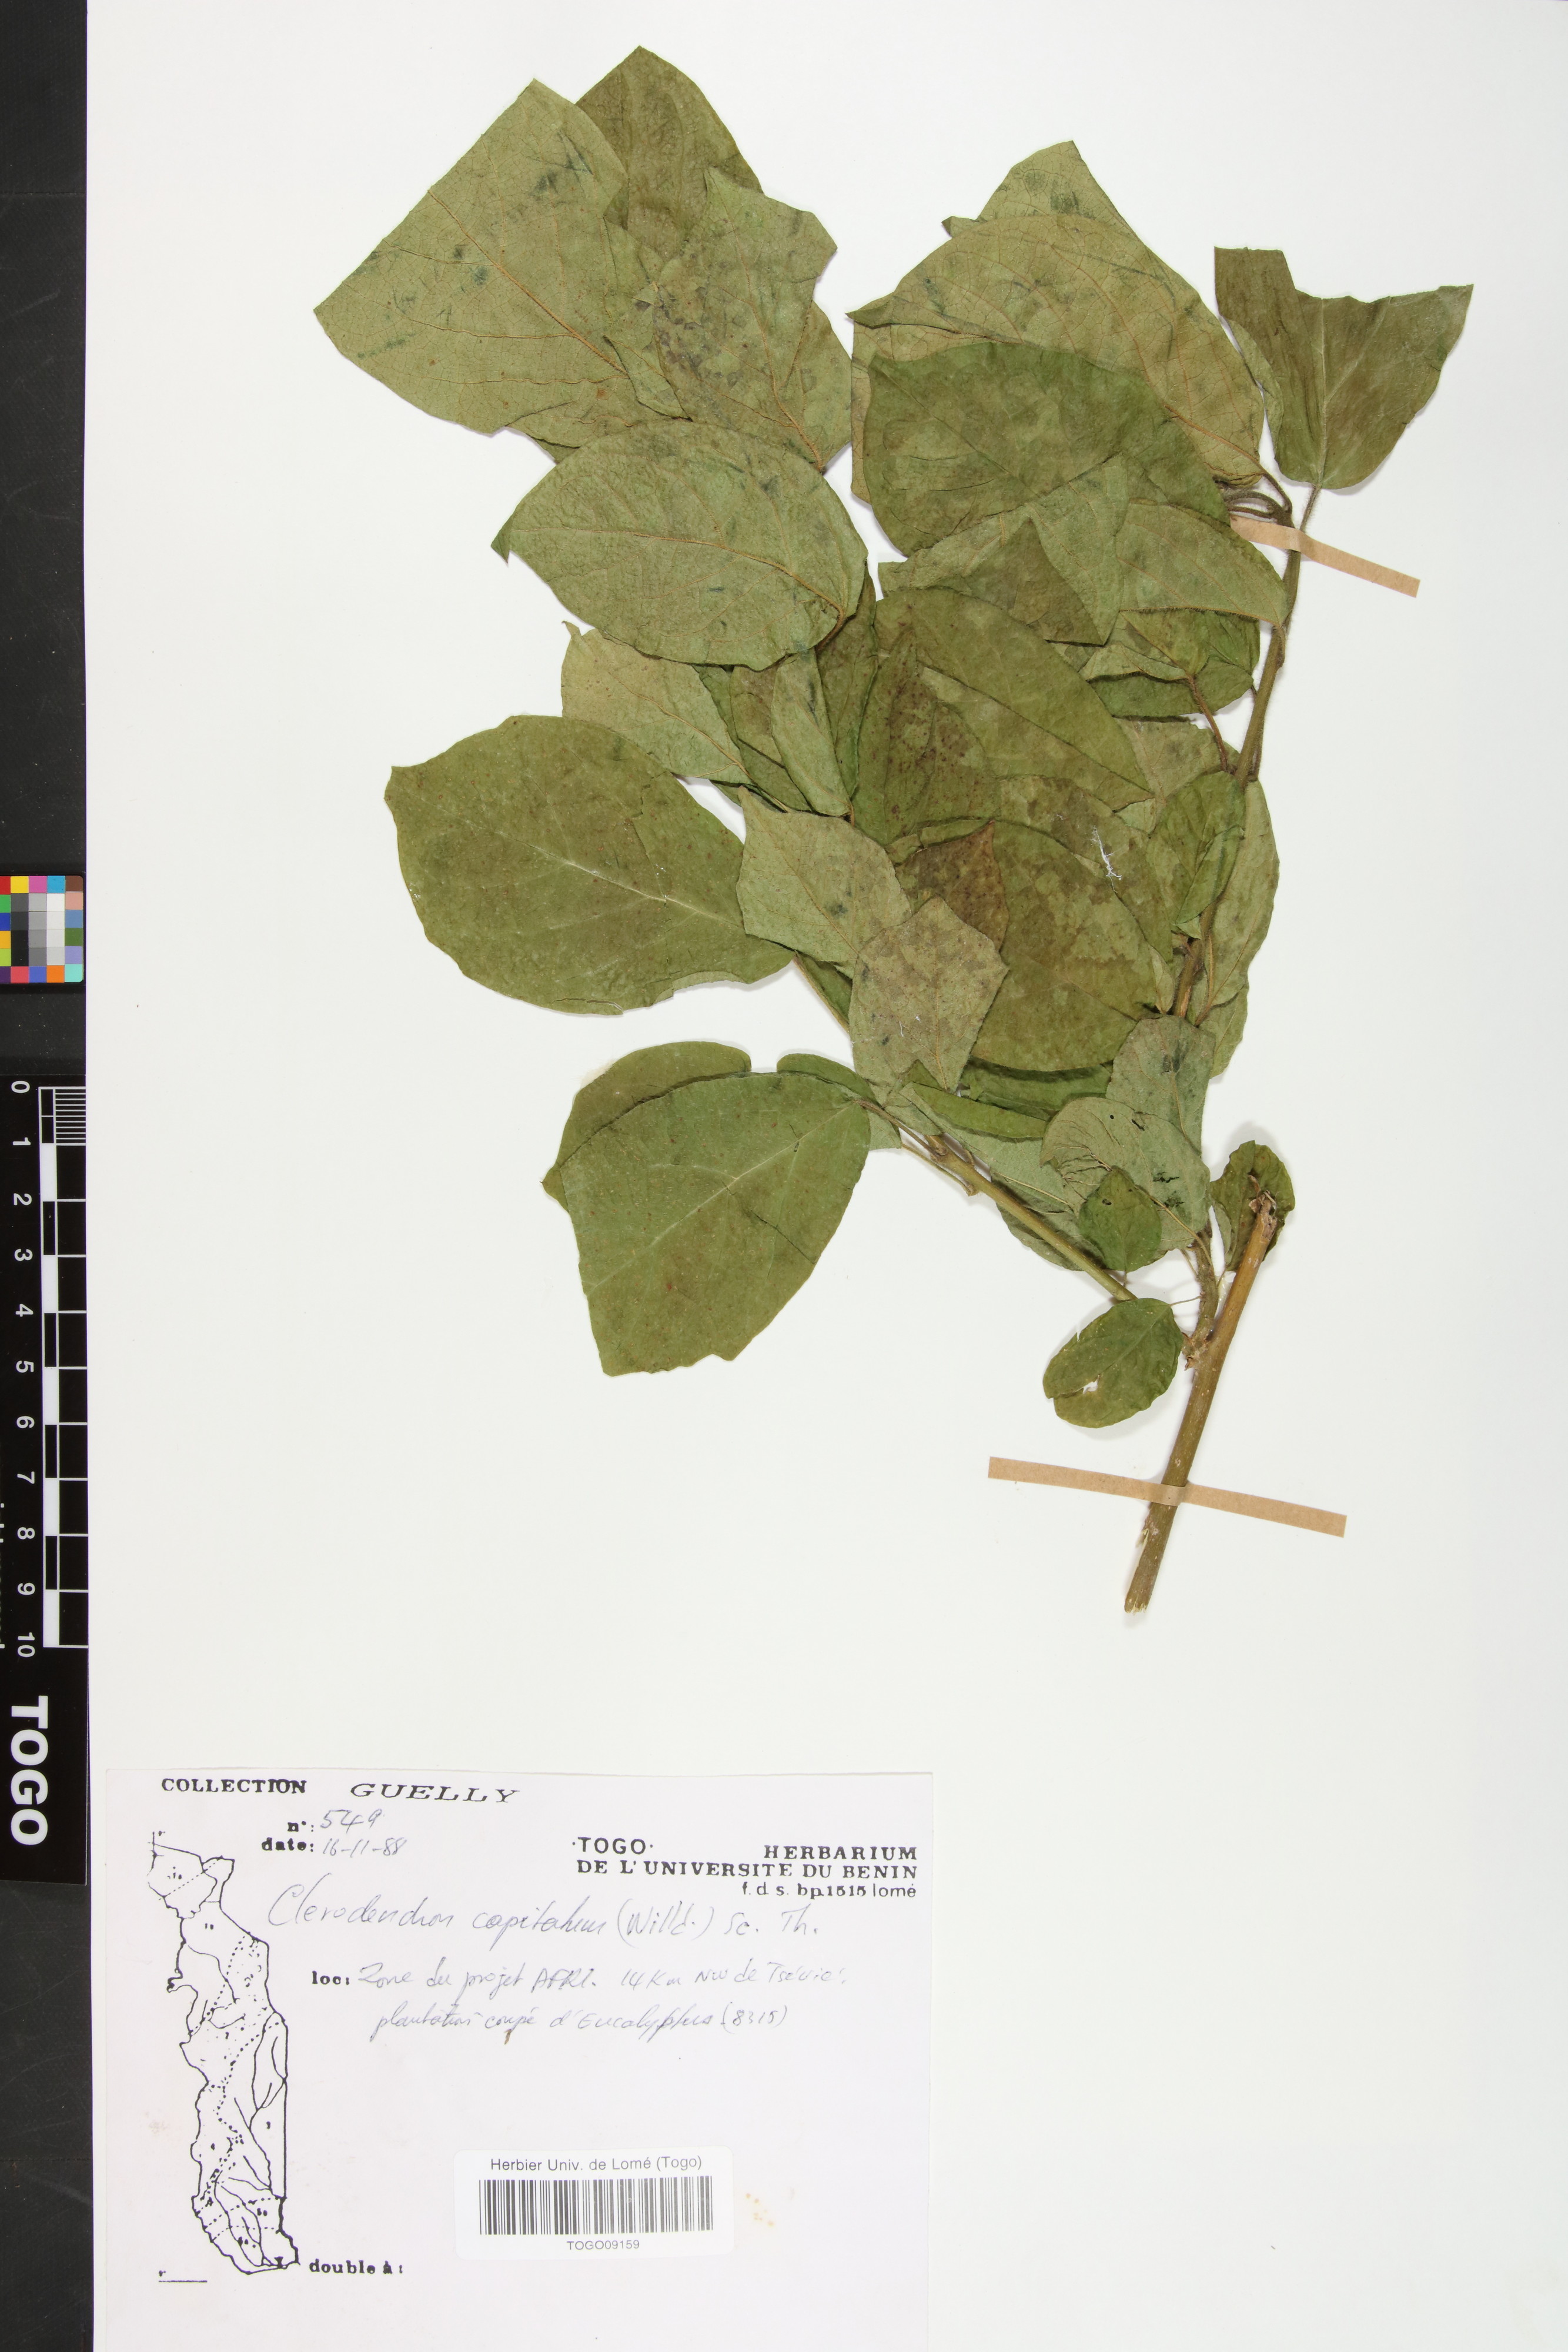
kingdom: Plantae
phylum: Tracheophyta
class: Magnoliopsida
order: Lamiales
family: Lamiaceae
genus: Clerodendrum
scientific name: Clerodendrum
